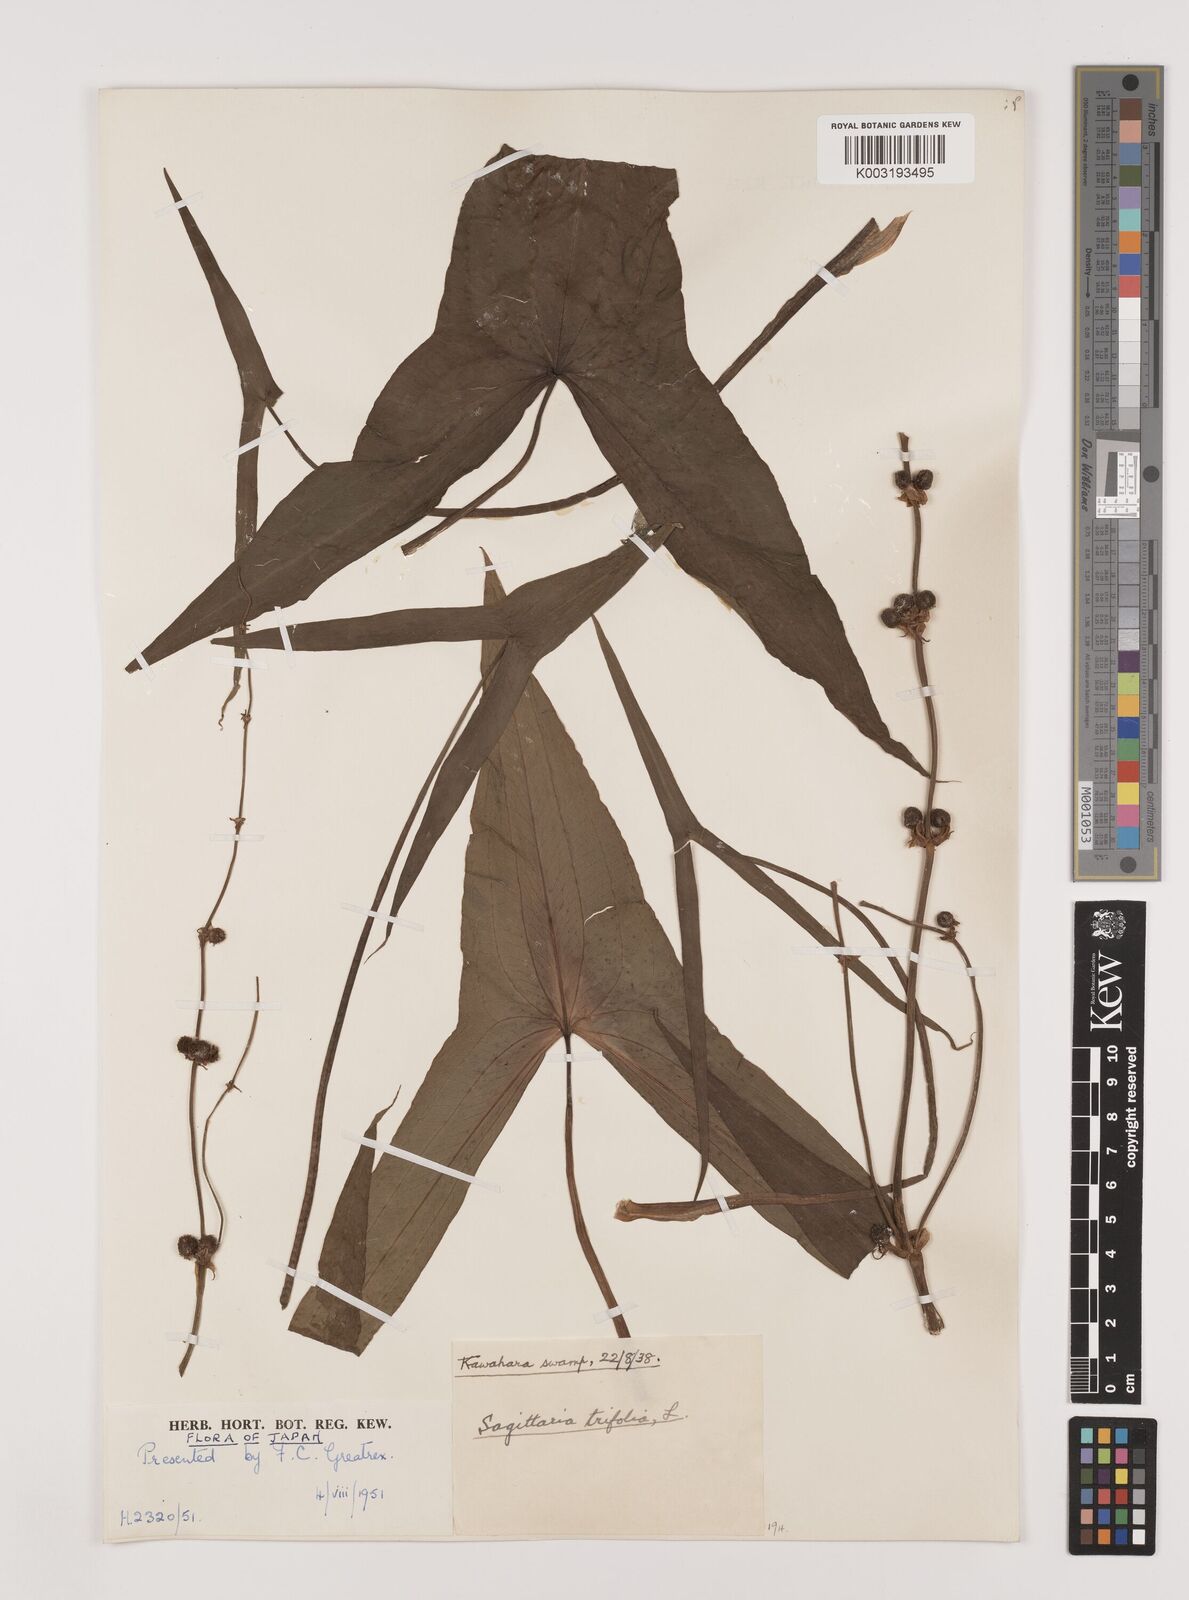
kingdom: Plantae
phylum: Tracheophyta
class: Liliopsida
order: Alismatales
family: Alismataceae
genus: Sagittaria
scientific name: Sagittaria sagittifolia
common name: Arrowhead
